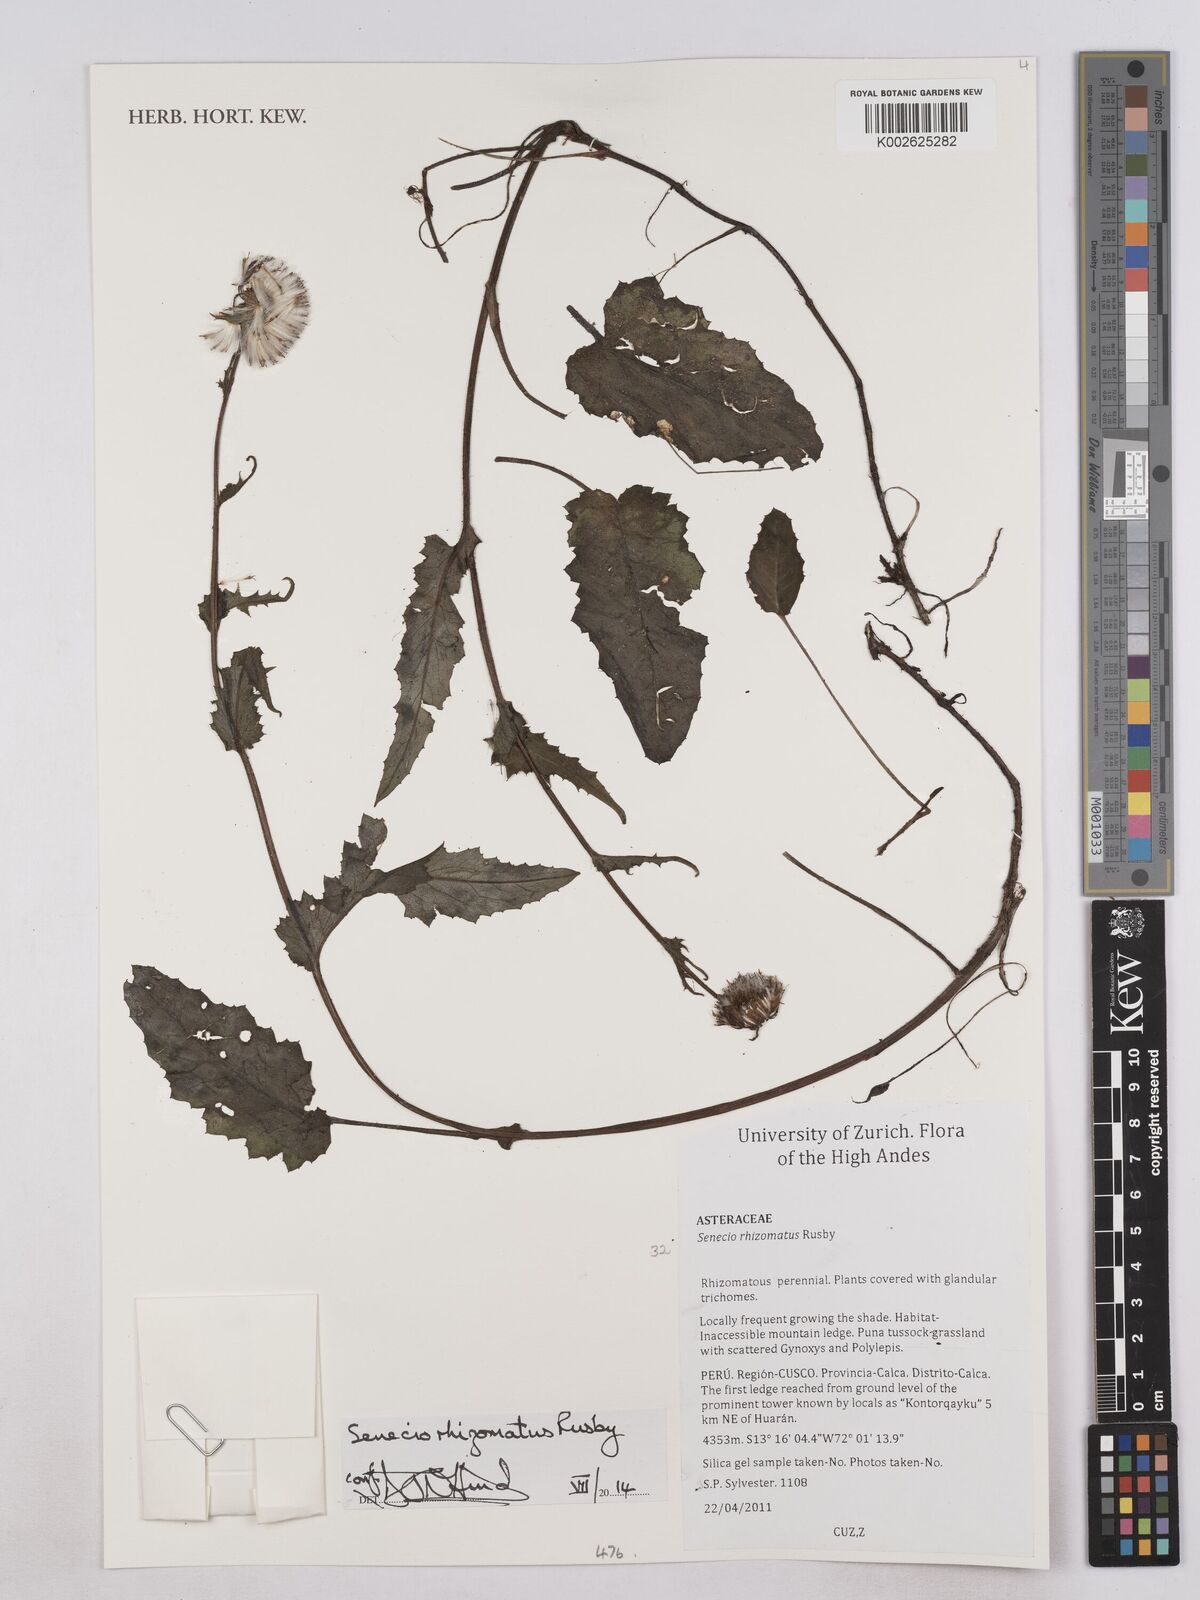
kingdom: Plantae
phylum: Tracheophyta
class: Magnoliopsida
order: Asterales
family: Asteraceae
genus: Senecio
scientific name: Senecio rhizomatus
